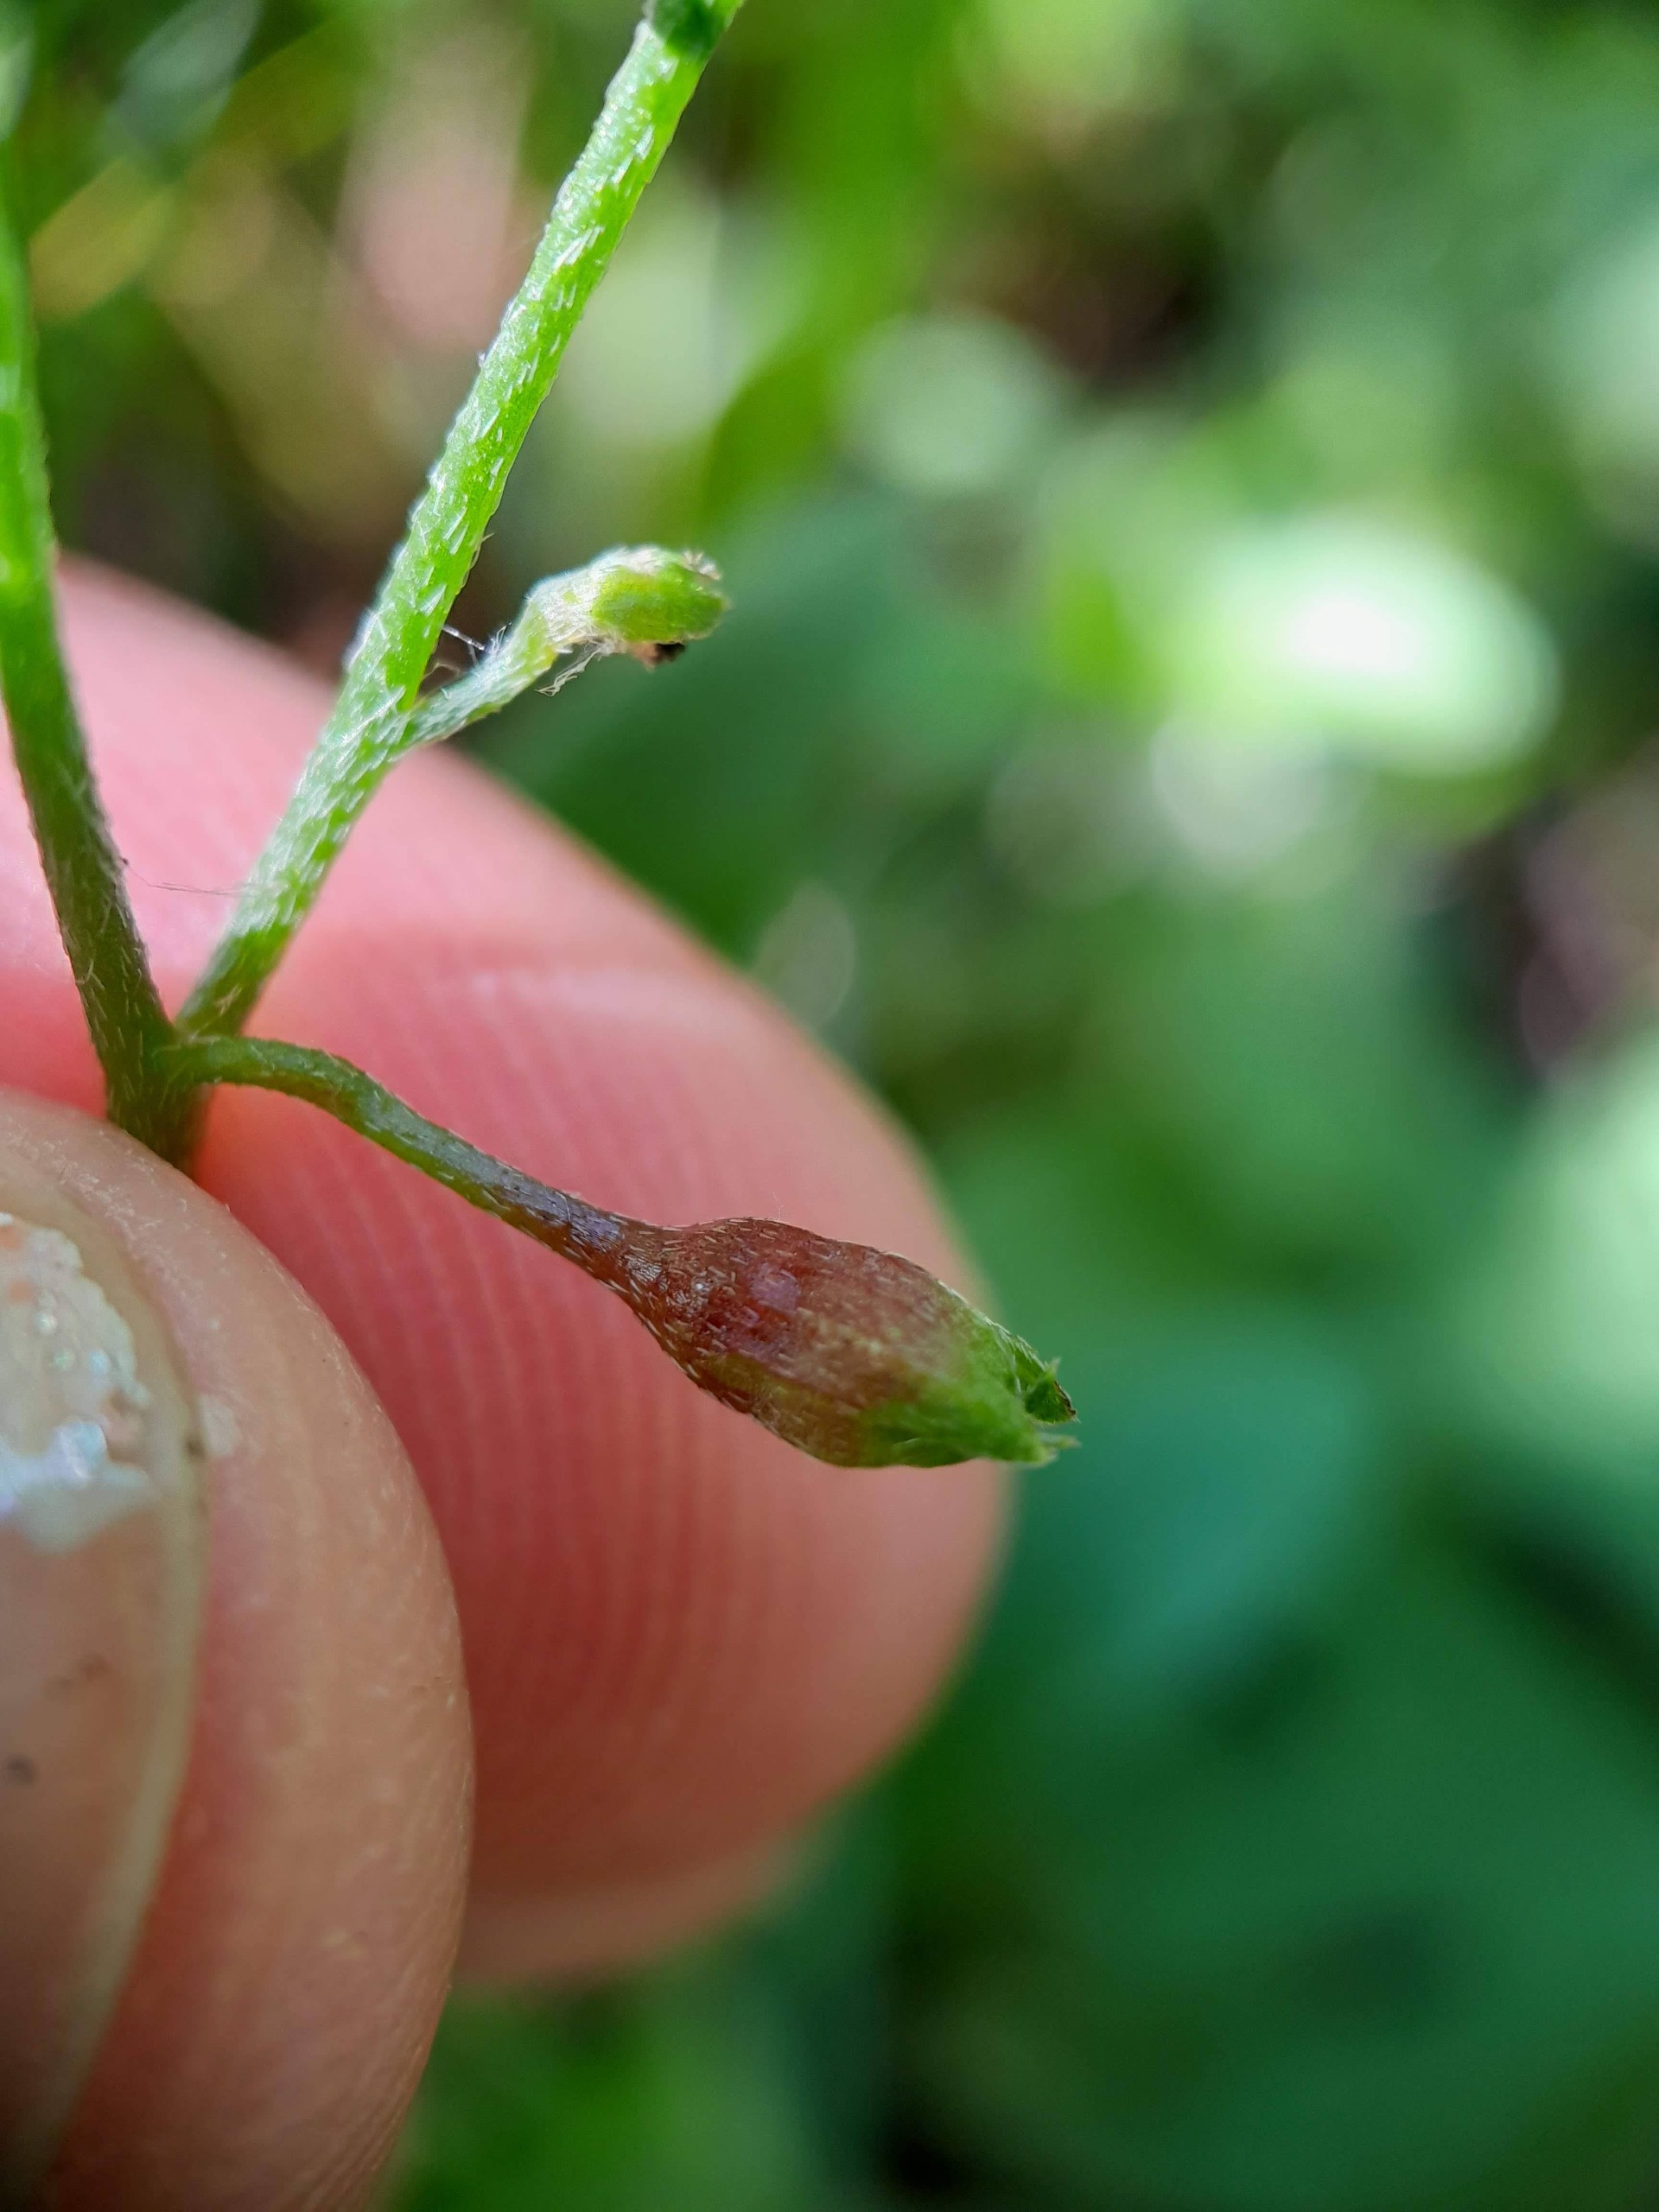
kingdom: Animalia
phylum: Arthropoda
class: Insecta
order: Diptera
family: Cecidomyiidae
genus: Dasineura
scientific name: Dasineura myosotidis
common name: Forglemmigejgalmyg
